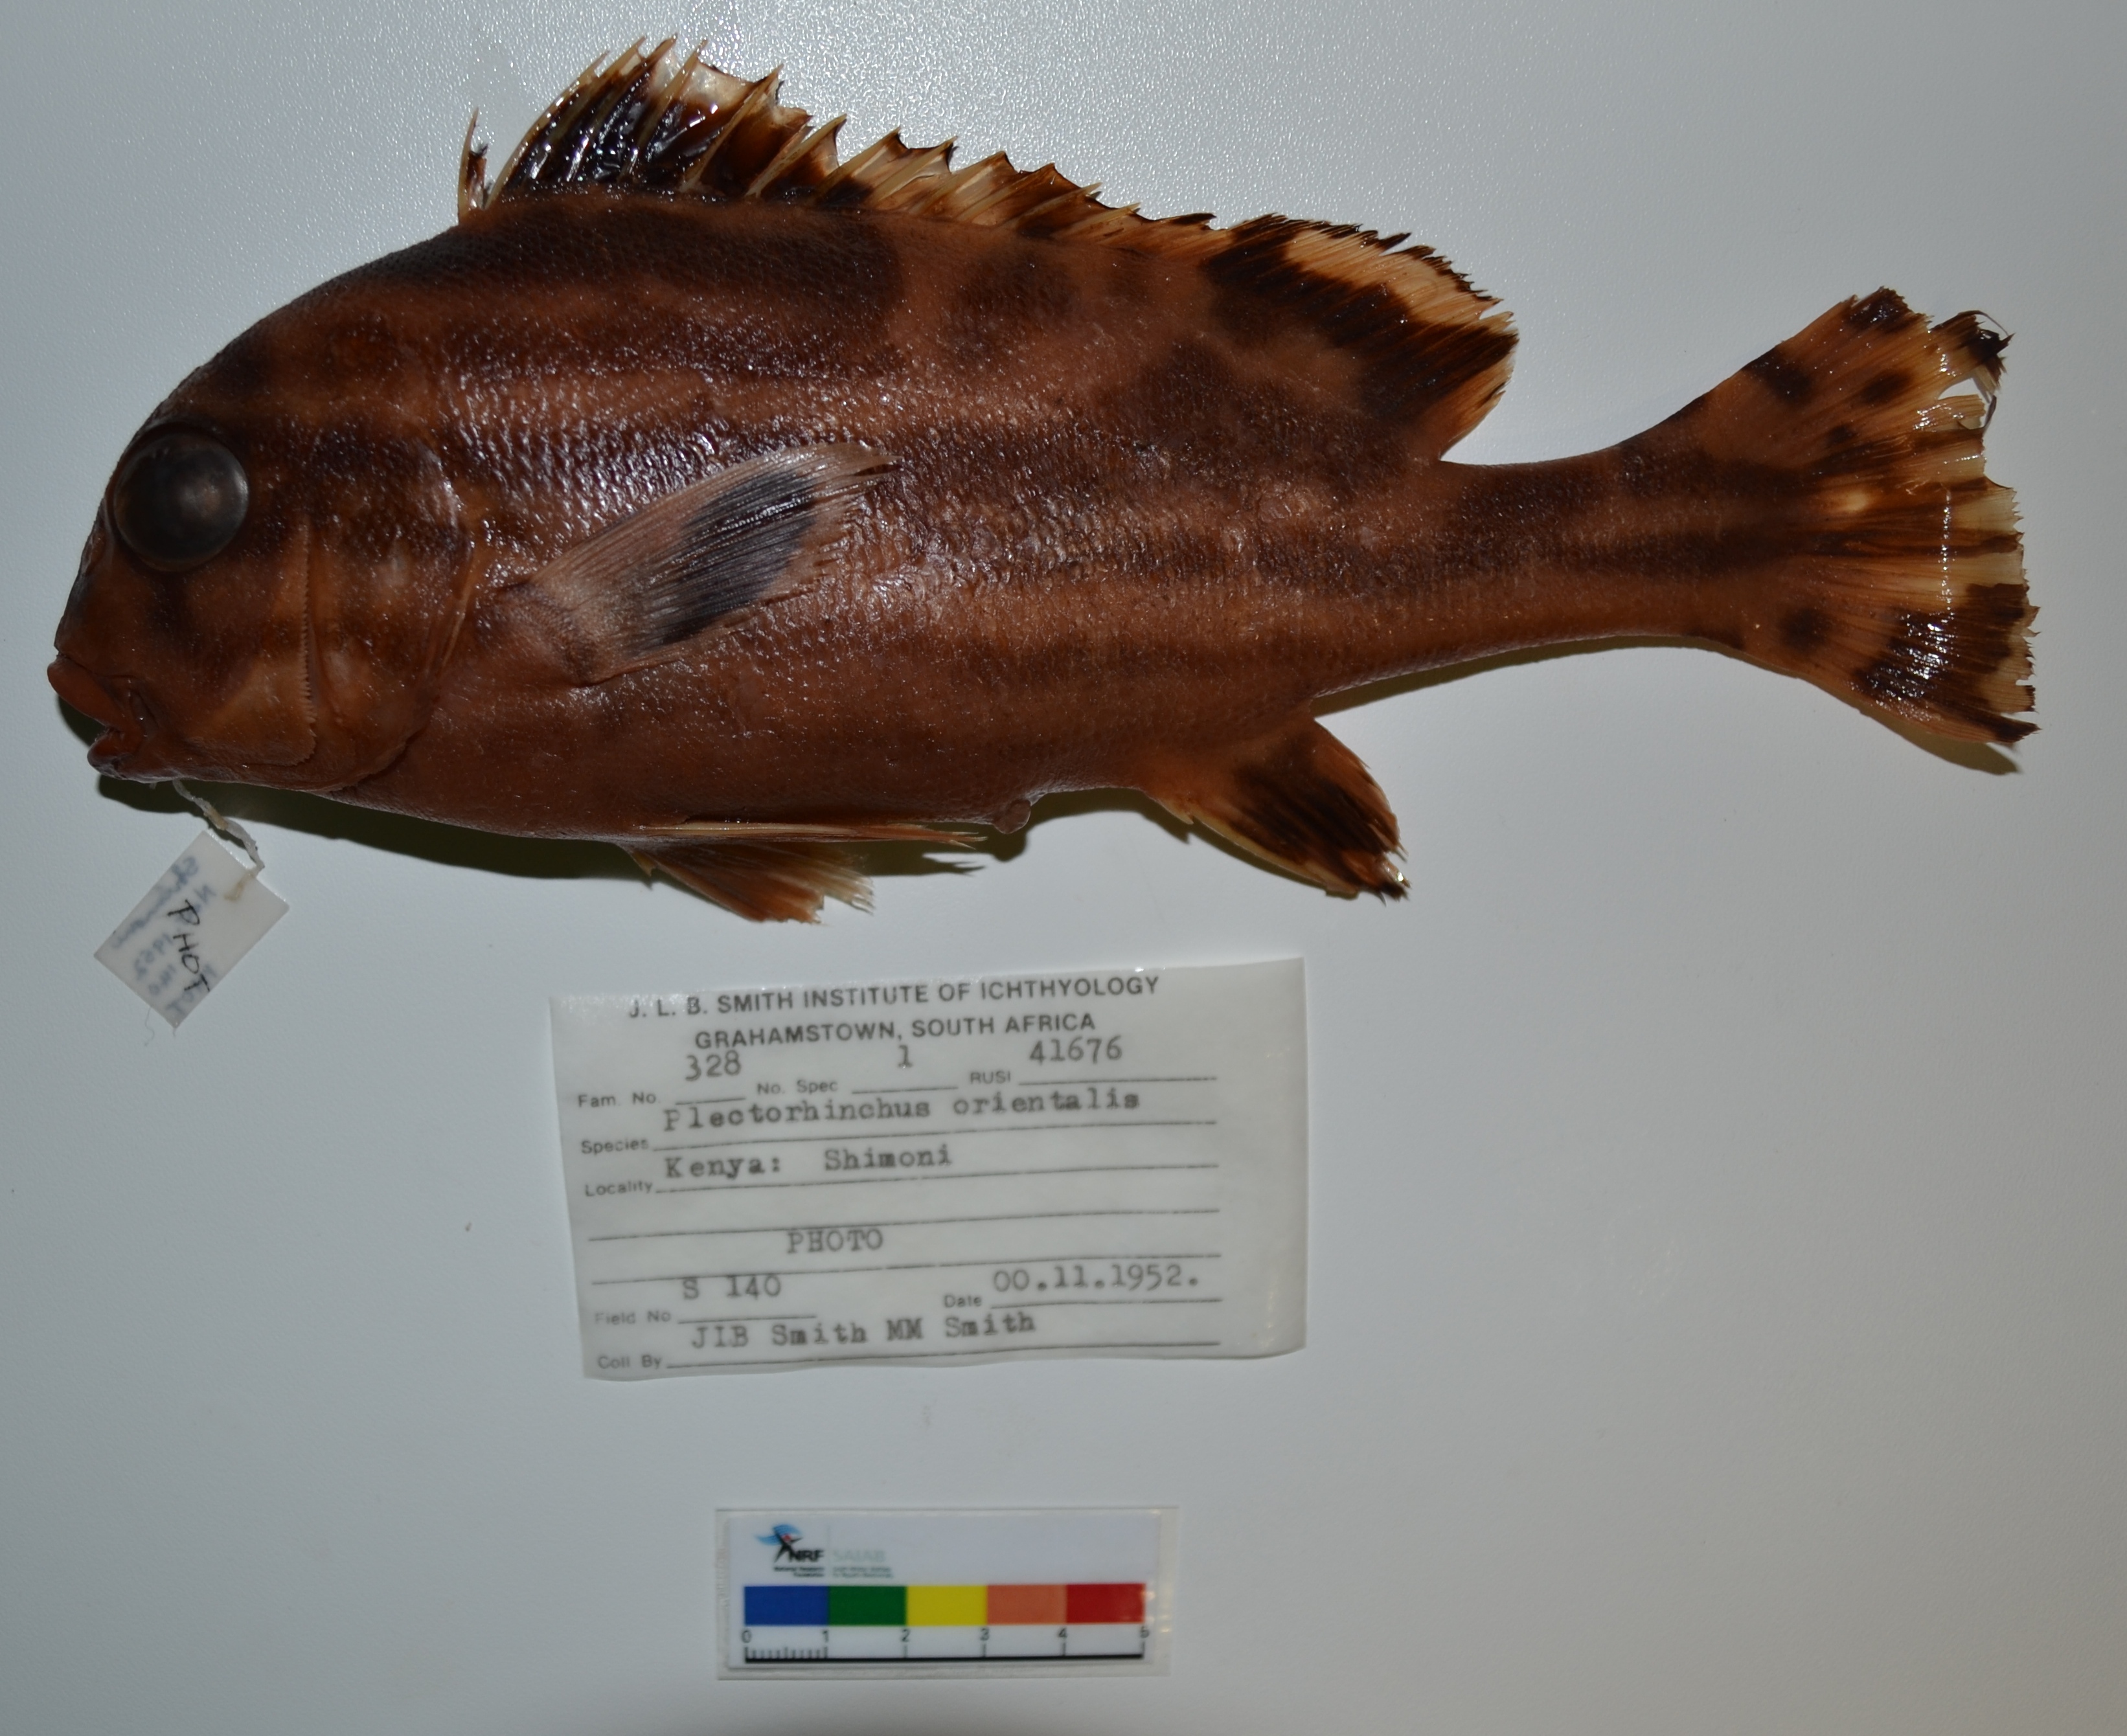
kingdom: Animalia
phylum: Chordata
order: Perciformes
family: Haemulidae
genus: Plectorhinchus
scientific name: Plectorhinchus vittatus
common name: Oriental sweetlips
